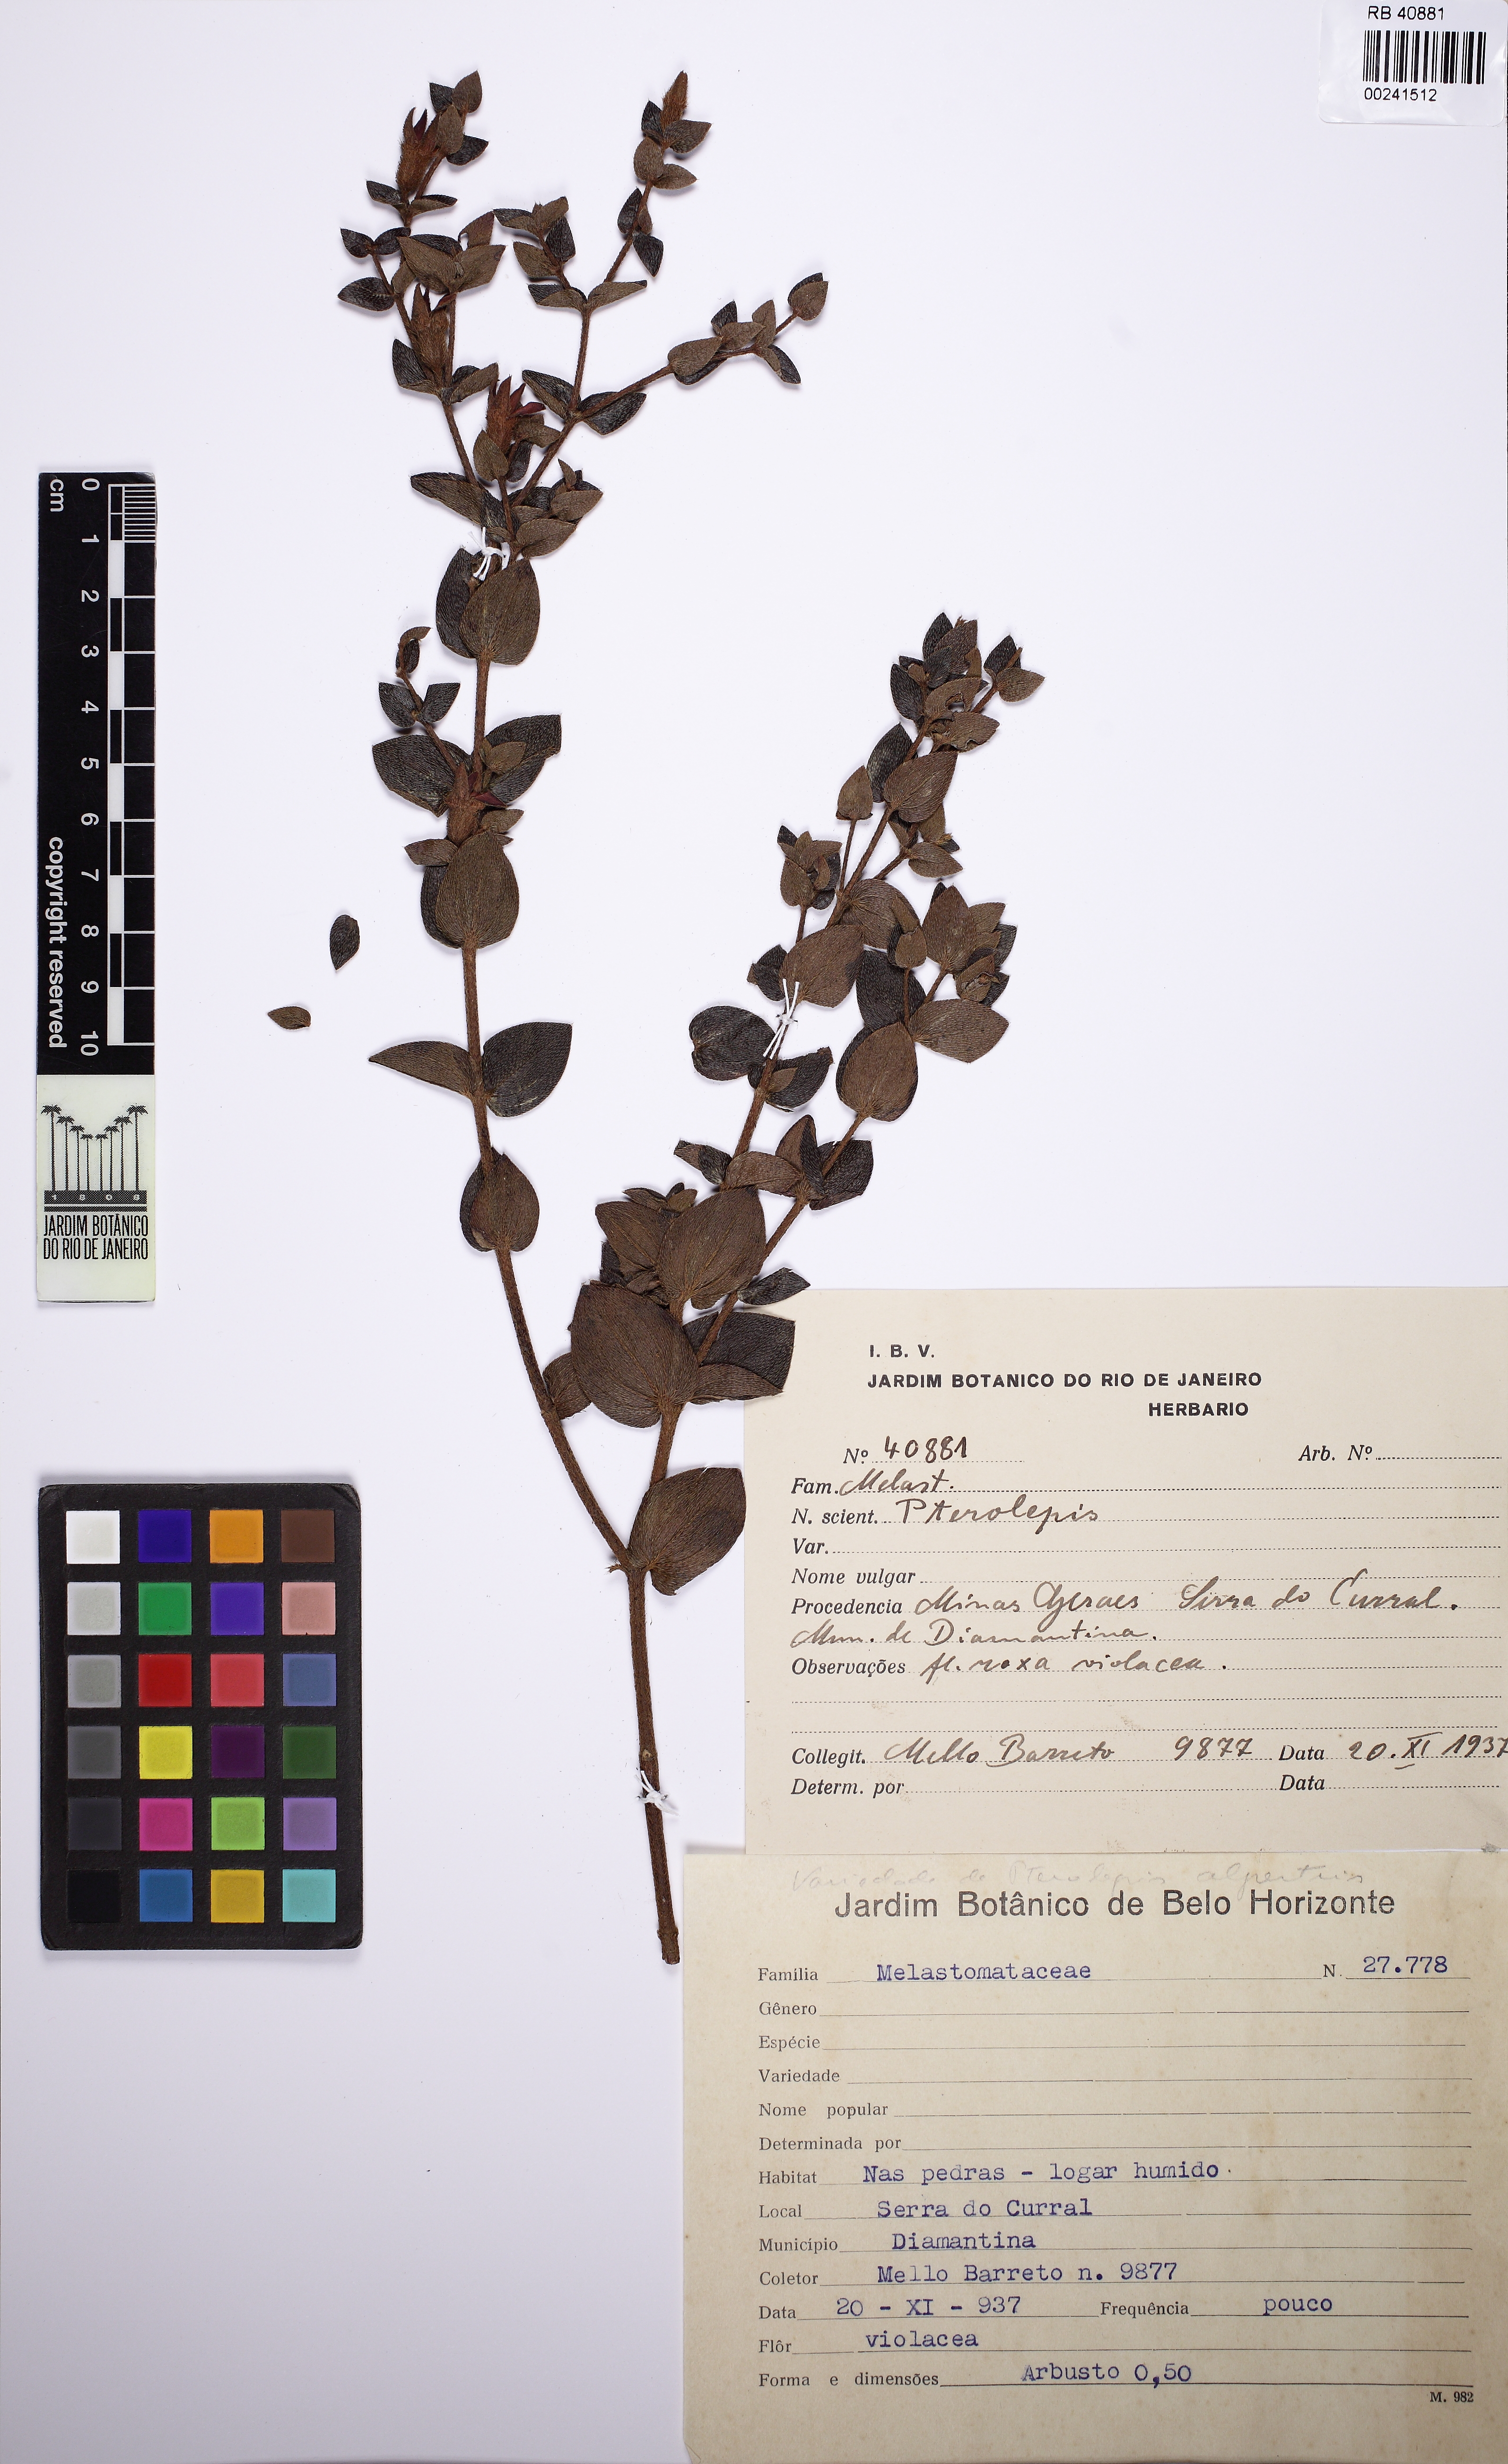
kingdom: Plantae
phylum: Tracheophyta
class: Magnoliopsida
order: Myrtales
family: Melastomataceae
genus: Pterolepis
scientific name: Pterolepis
